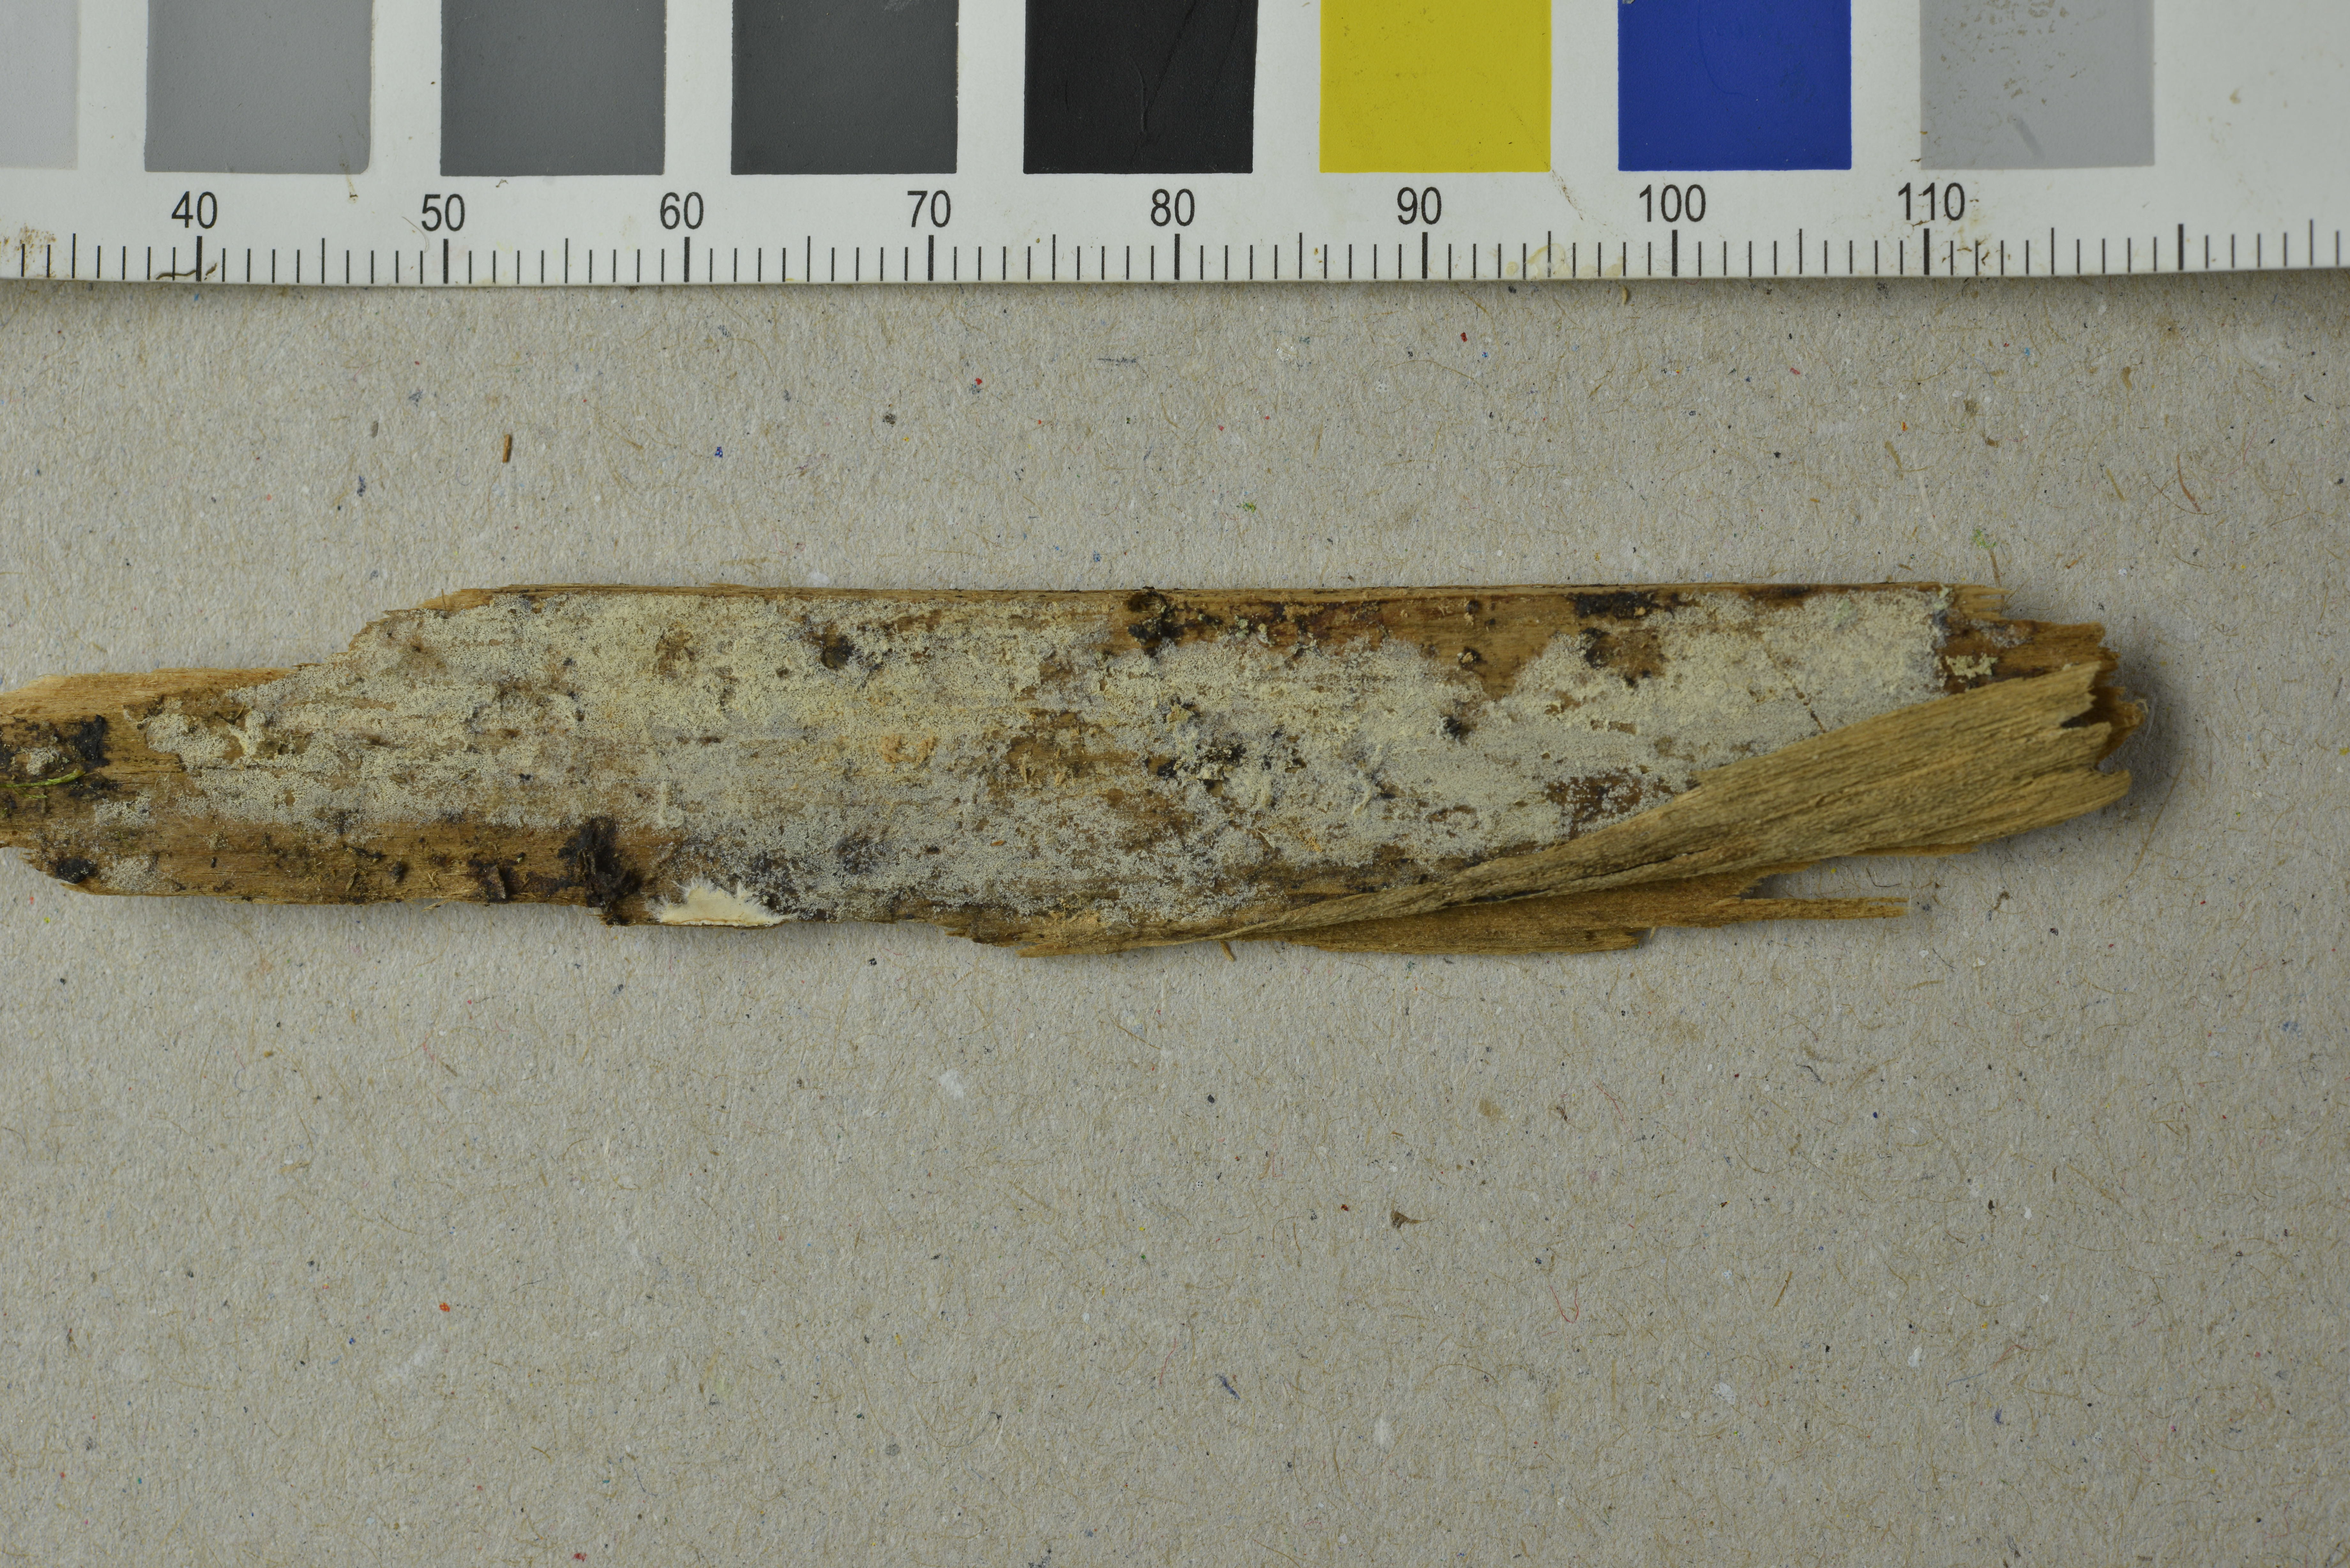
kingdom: Fungi
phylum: Basidiomycota
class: Agaricomycetes
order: Atheliales
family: Atheliaceae
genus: Athelopsis
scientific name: Athelopsis subinconspicua
